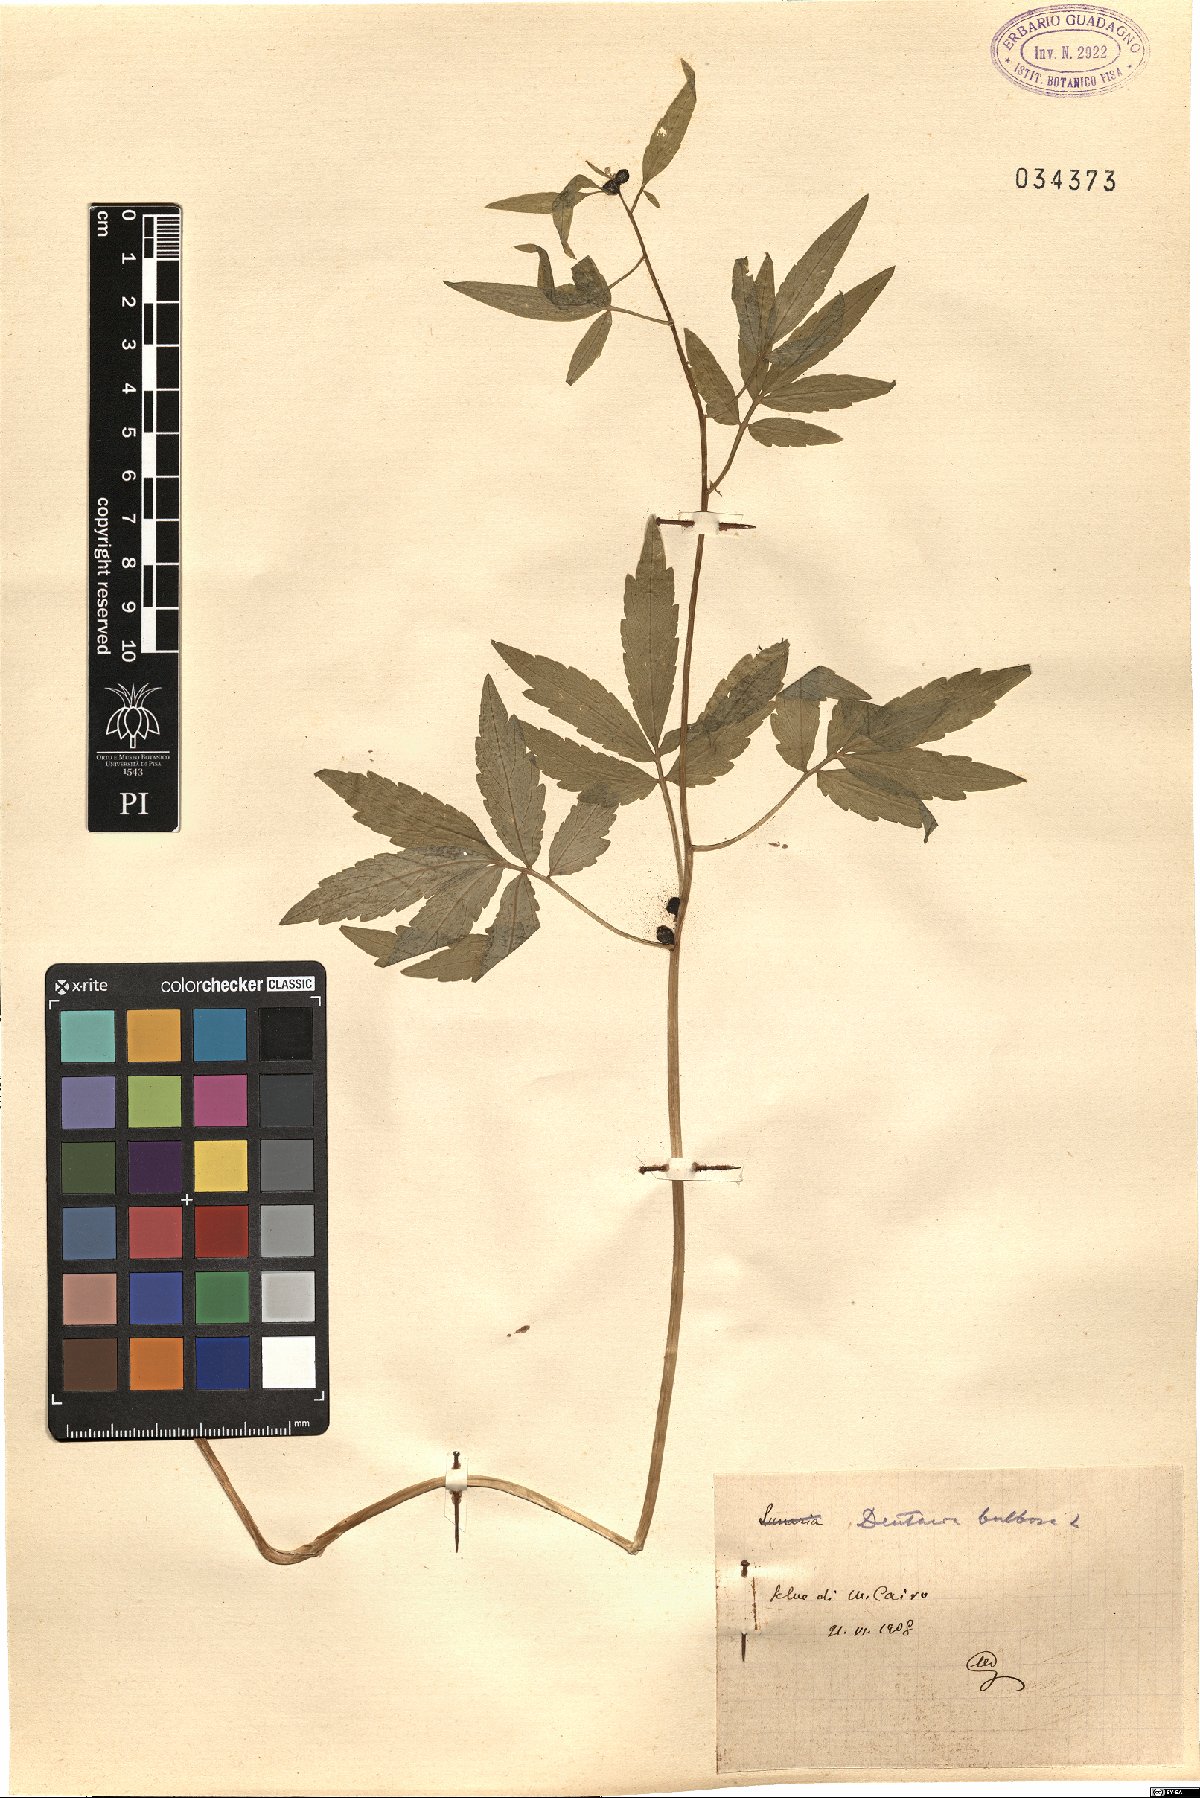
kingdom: Plantae
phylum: Tracheophyta
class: Magnoliopsida
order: Brassicales
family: Brassicaceae
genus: Cardamine
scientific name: Cardamine bulbifera
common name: Coralroot bittercress
